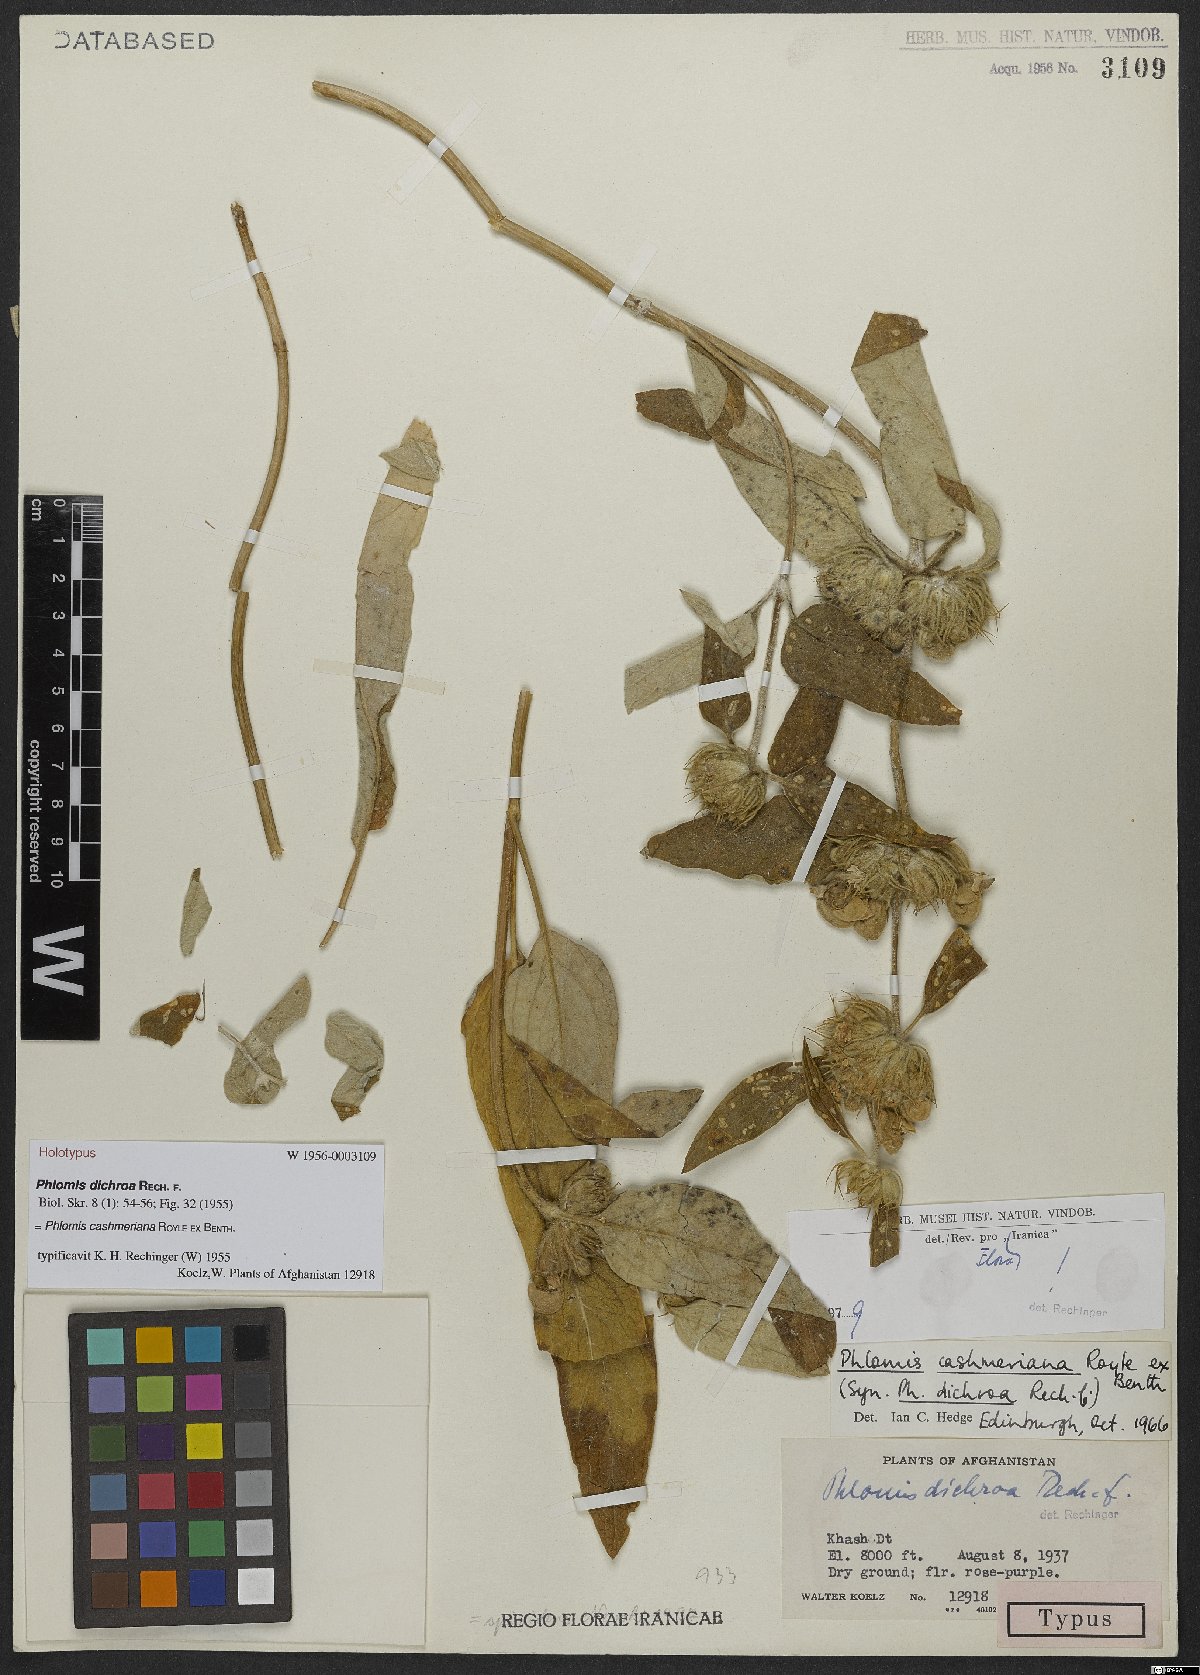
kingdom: Plantae
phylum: Tracheophyta
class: Magnoliopsida
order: Lamiales
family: Lamiaceae
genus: Phlomis
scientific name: Phlomis cashmeriana
